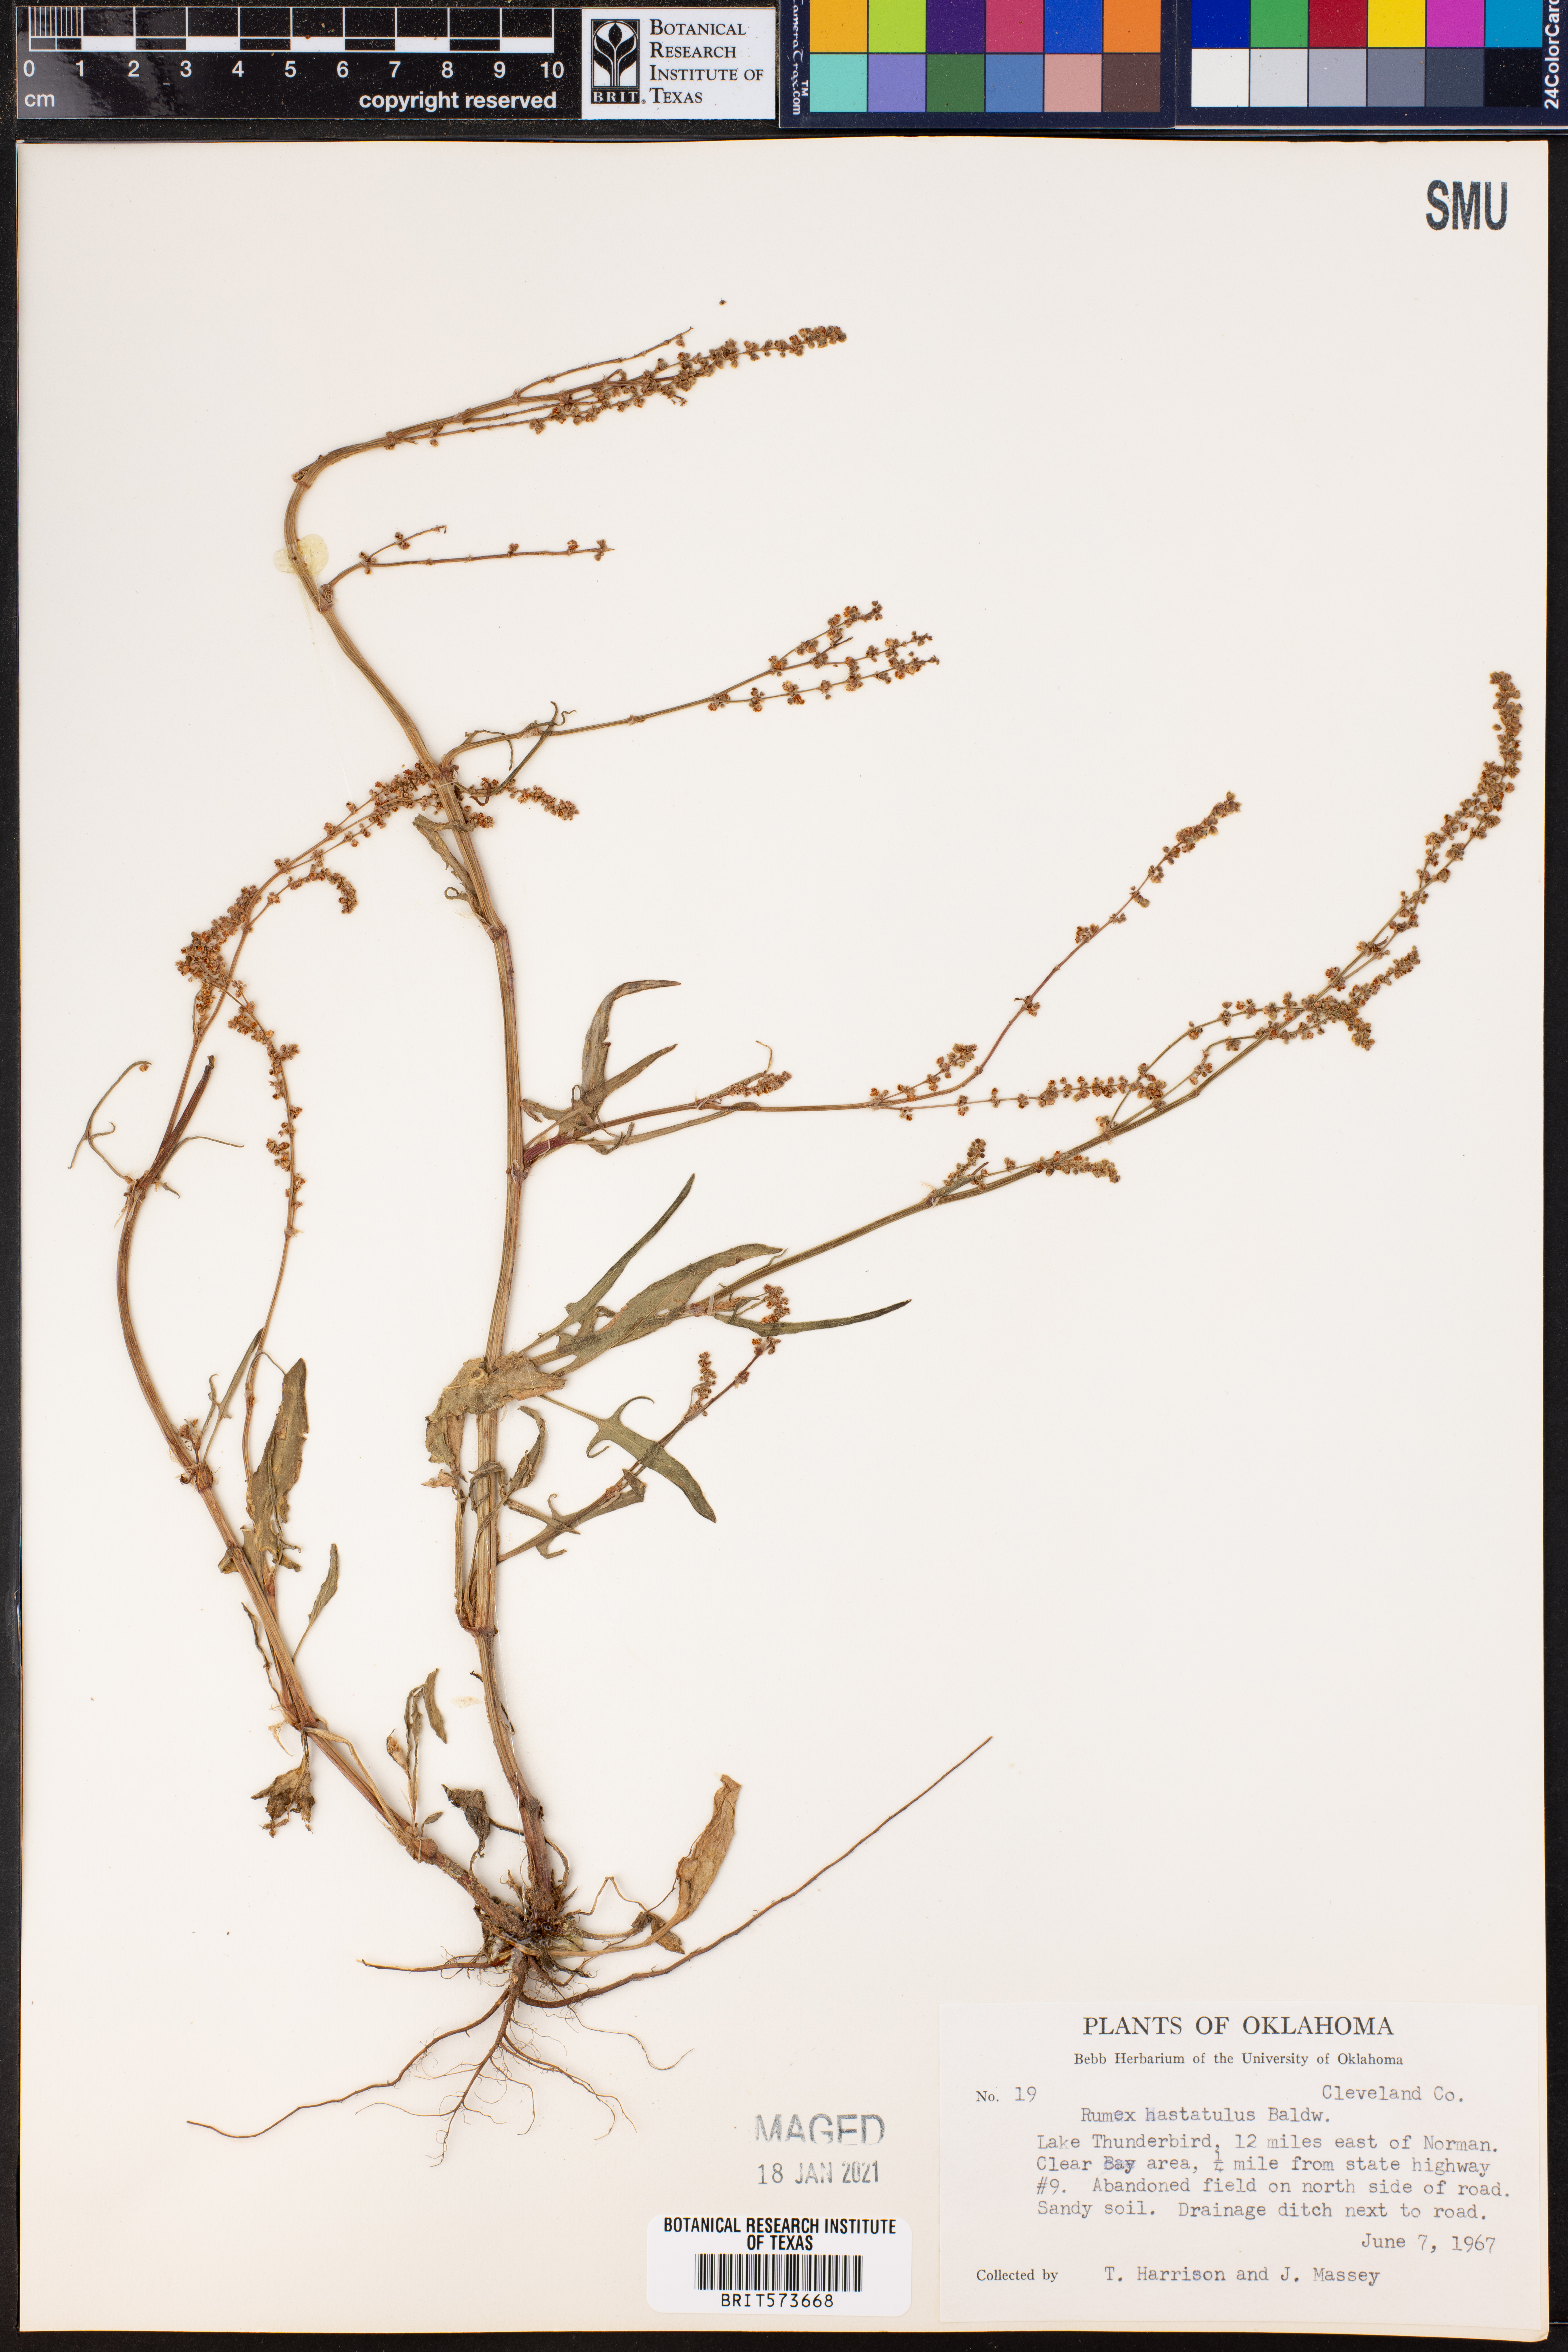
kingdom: Plantae
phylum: Tracheophyta
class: Magnoliopsida
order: Caryophyllales
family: Polygonaceae
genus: Rumex
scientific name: Rumex hastatulus
